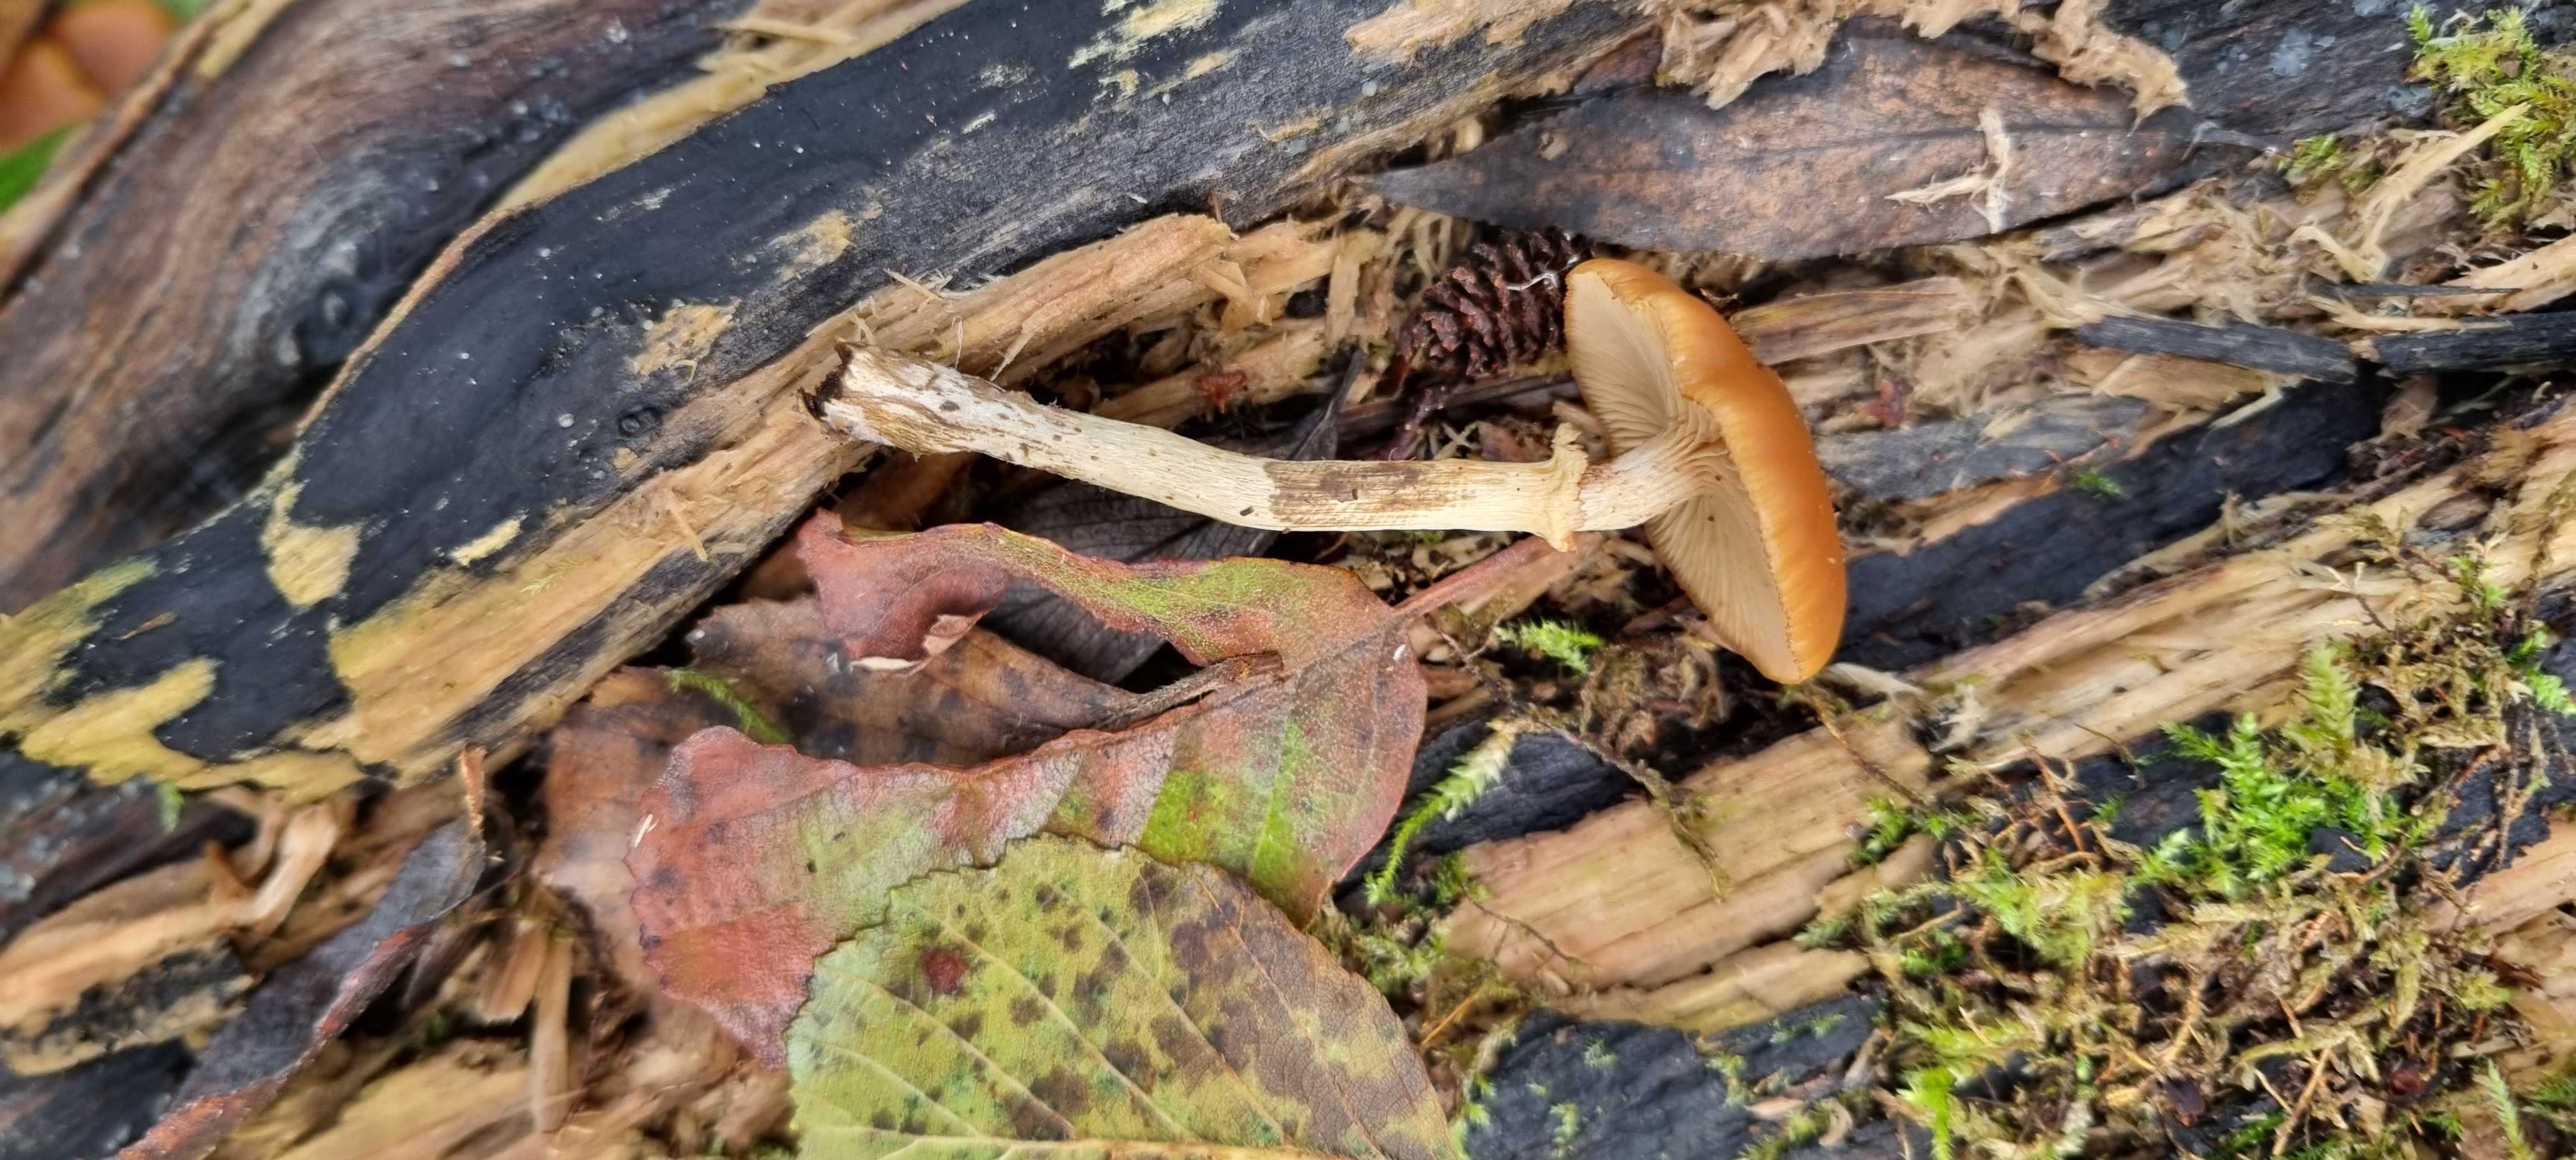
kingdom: Fungi
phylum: Basidiomycota
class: Agaricomycetes
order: Agaricales
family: Hymenogastraceae
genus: Galerina
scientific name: Galerina marginata
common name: randbæltet hjelmhat
